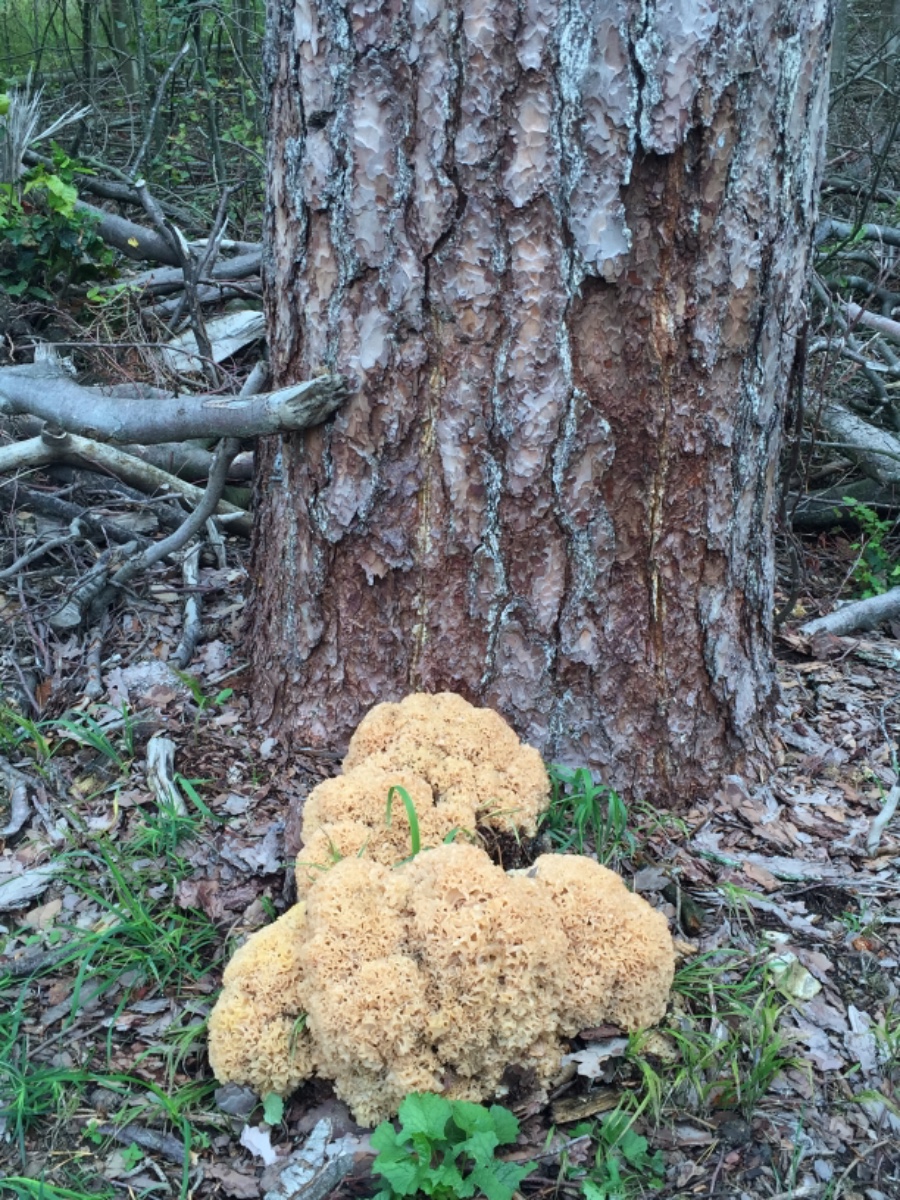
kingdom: Fungi
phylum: Basidiomycota
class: Agaricomycetes
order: Polyporales
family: Sparassidaceae
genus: Sparassis
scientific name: Sparassis crispa
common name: kruset blomkålssvamp
